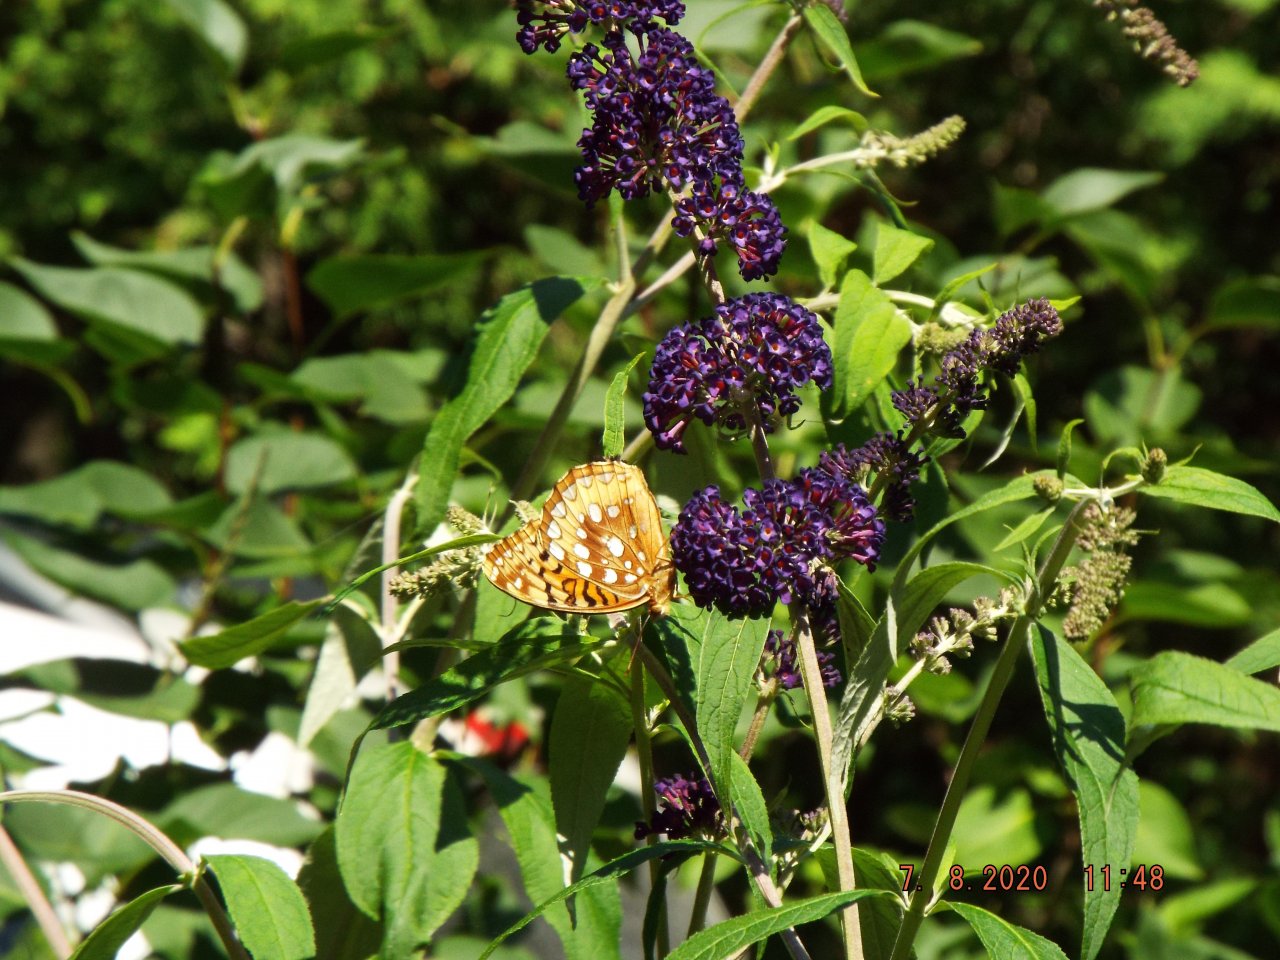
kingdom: Animalia
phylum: Arthropoda
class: Insecta
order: Lepidoptera
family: Nymphalidae
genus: Speyeria
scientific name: Speyeria cybele
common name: Great Spangled Fritillary
